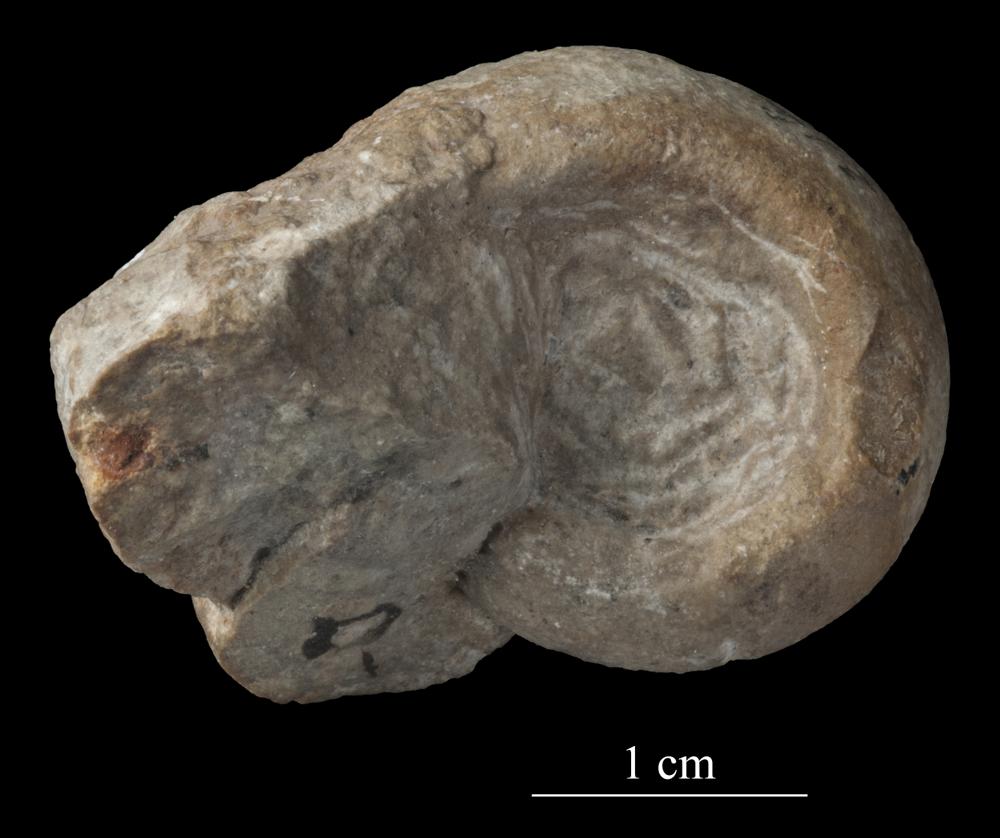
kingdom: Animalia
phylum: Mollusca
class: Gastropoda
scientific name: Gastropoda
